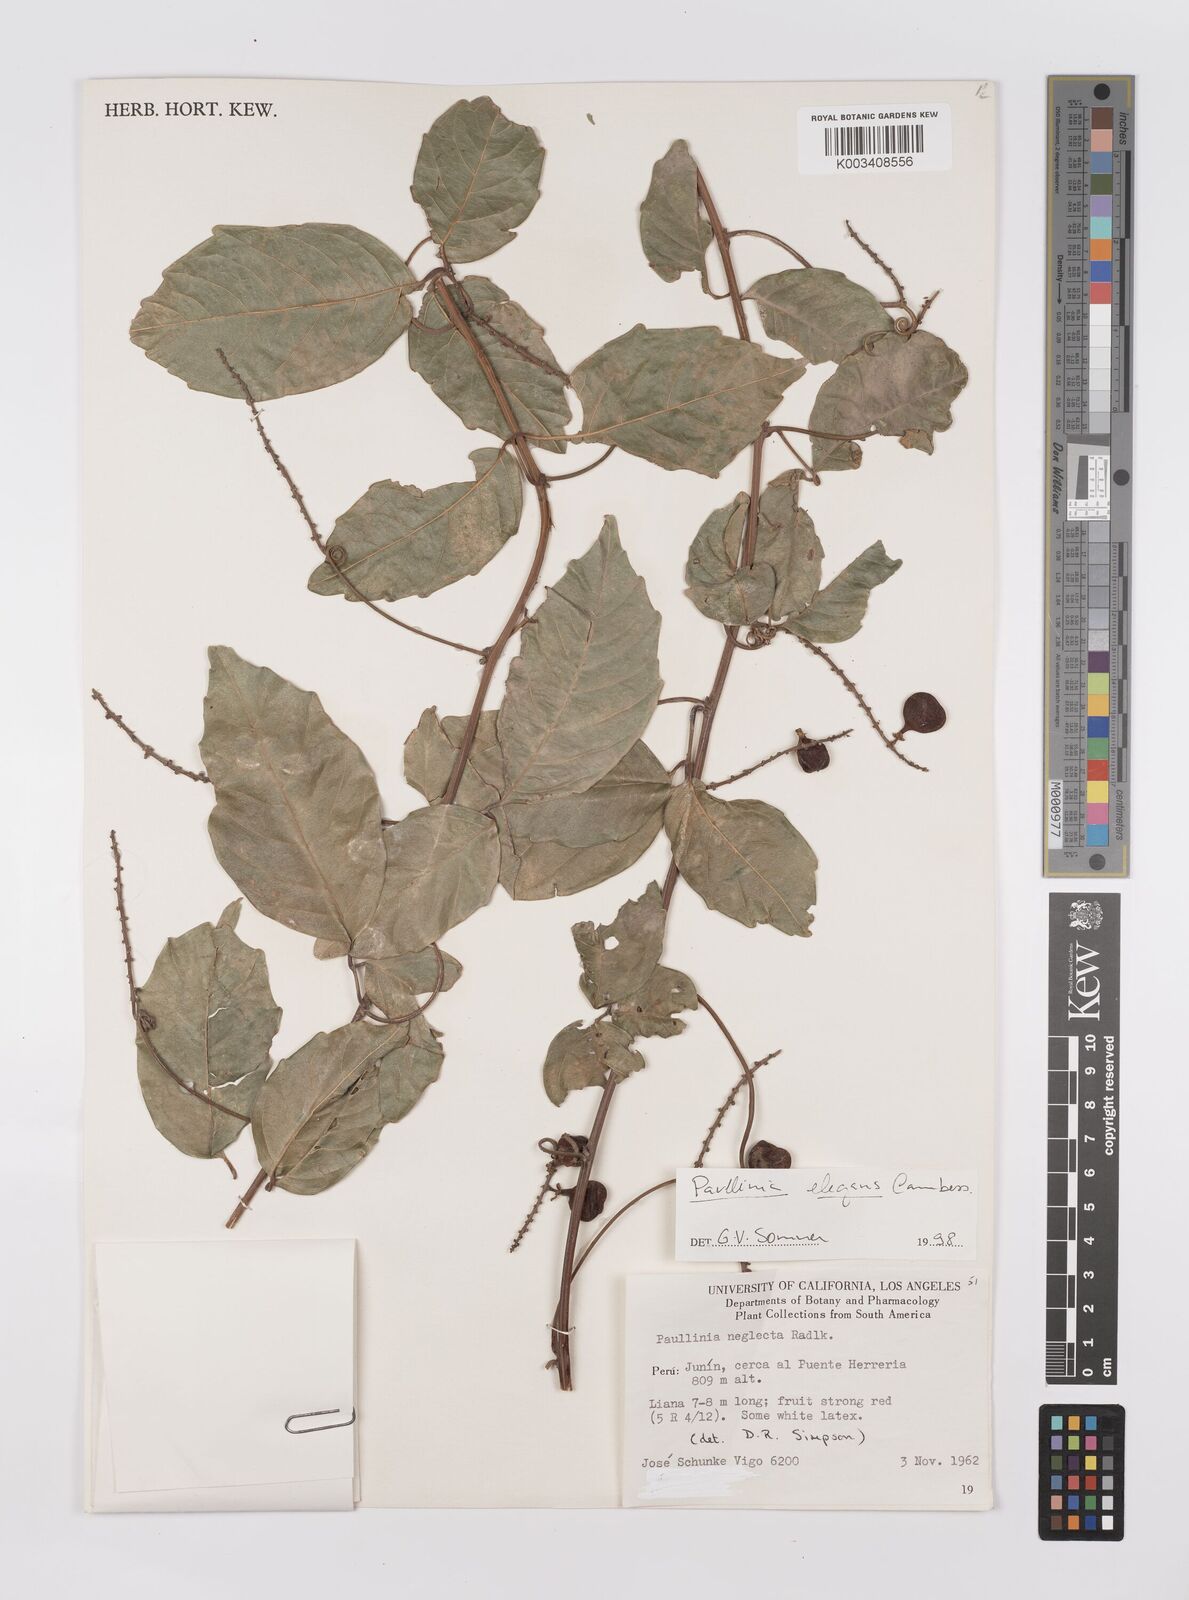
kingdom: Plantae
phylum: Tracheophyta
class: Magnoliopsida
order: Sapindales
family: Sapindaceae
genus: Paullinia
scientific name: Paullinia elegans
